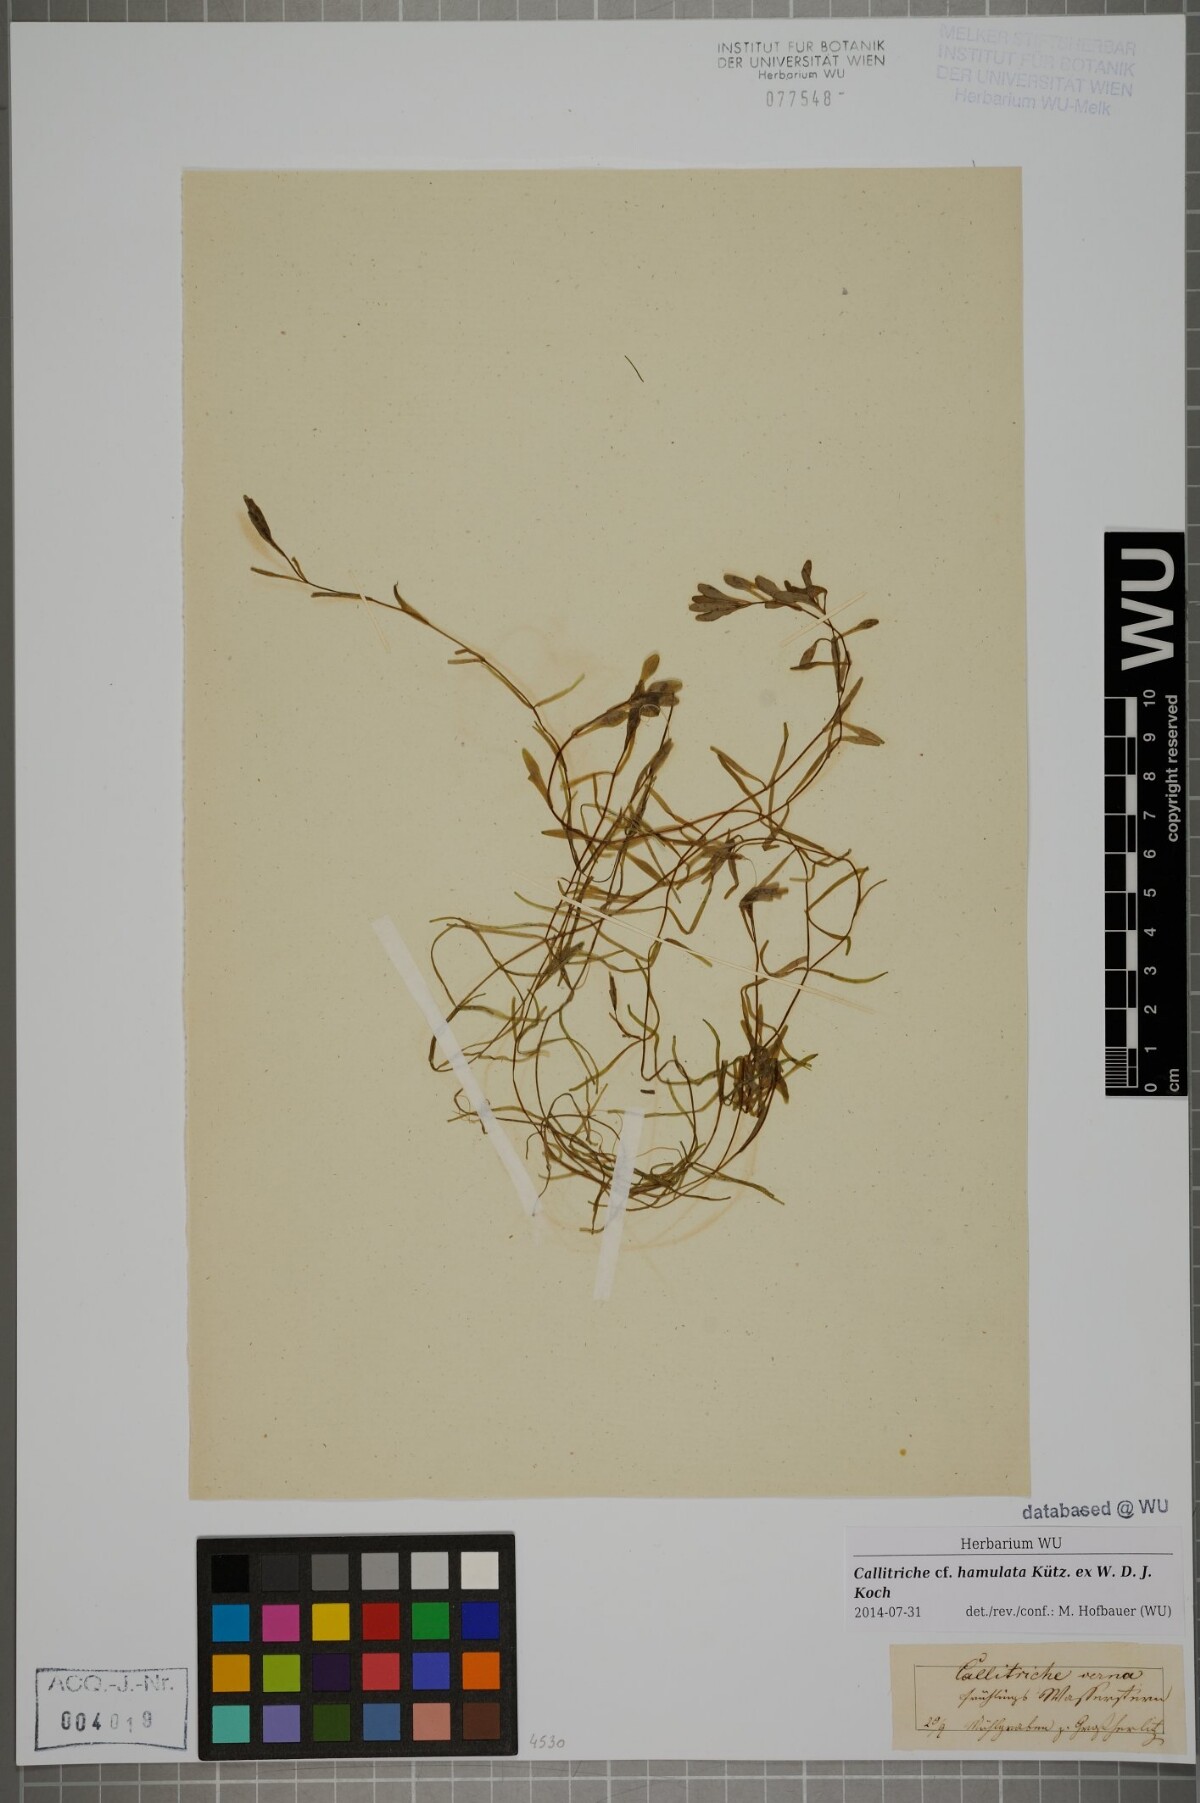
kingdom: Plantae
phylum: Tracheophyta
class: Magnoliopsida
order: Lamiales
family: Plantaginaceae
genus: Callitriche
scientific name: Callitriche hamulata
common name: Intermediate water-starwort
